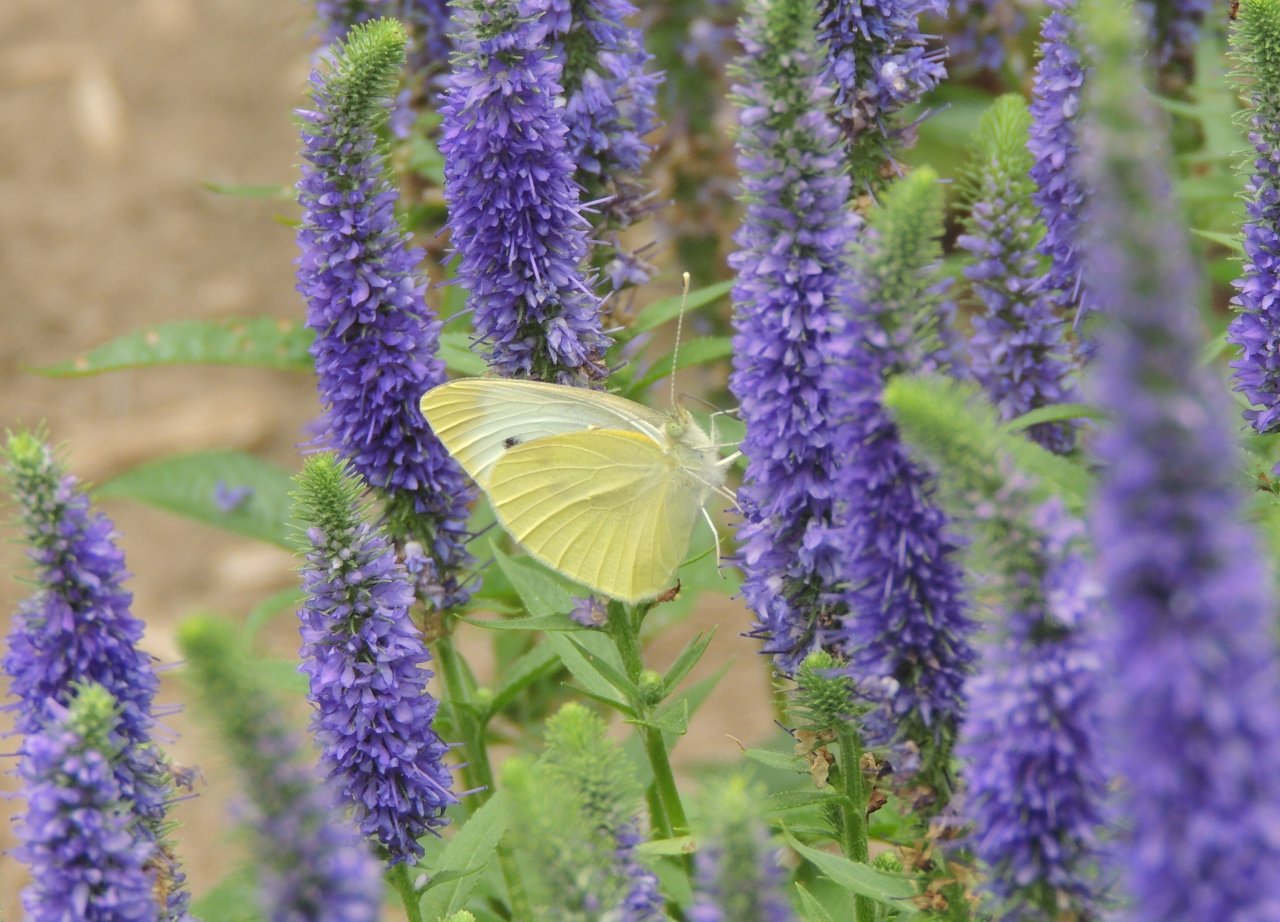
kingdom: Animalia
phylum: Arthropoda
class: Insecta
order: Lepidoptera
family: Pieridae
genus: Pieris
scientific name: Pieris rapae
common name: Cabbage White
